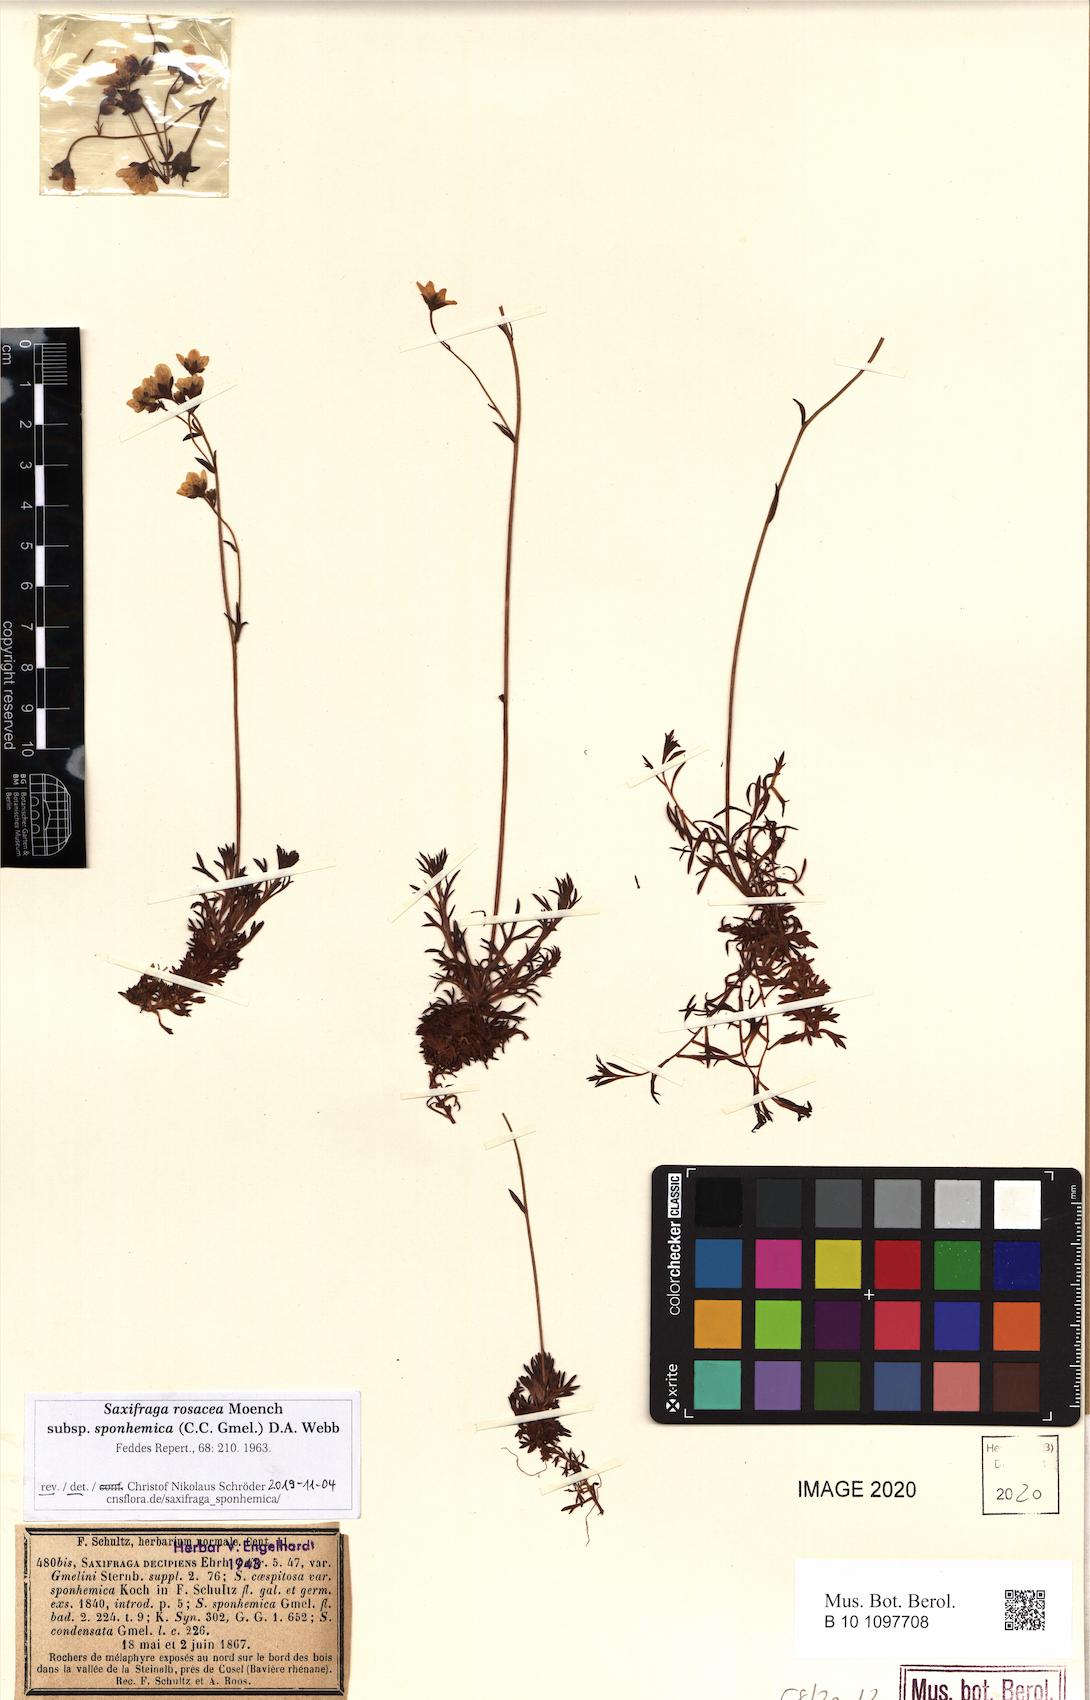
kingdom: Plantae
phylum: Tracheophyta
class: Magnoliopsida
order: Saxifragales
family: Saxifragaceae
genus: Saxifraga
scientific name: Saxifraga rosacea
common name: Irish saxifrage
